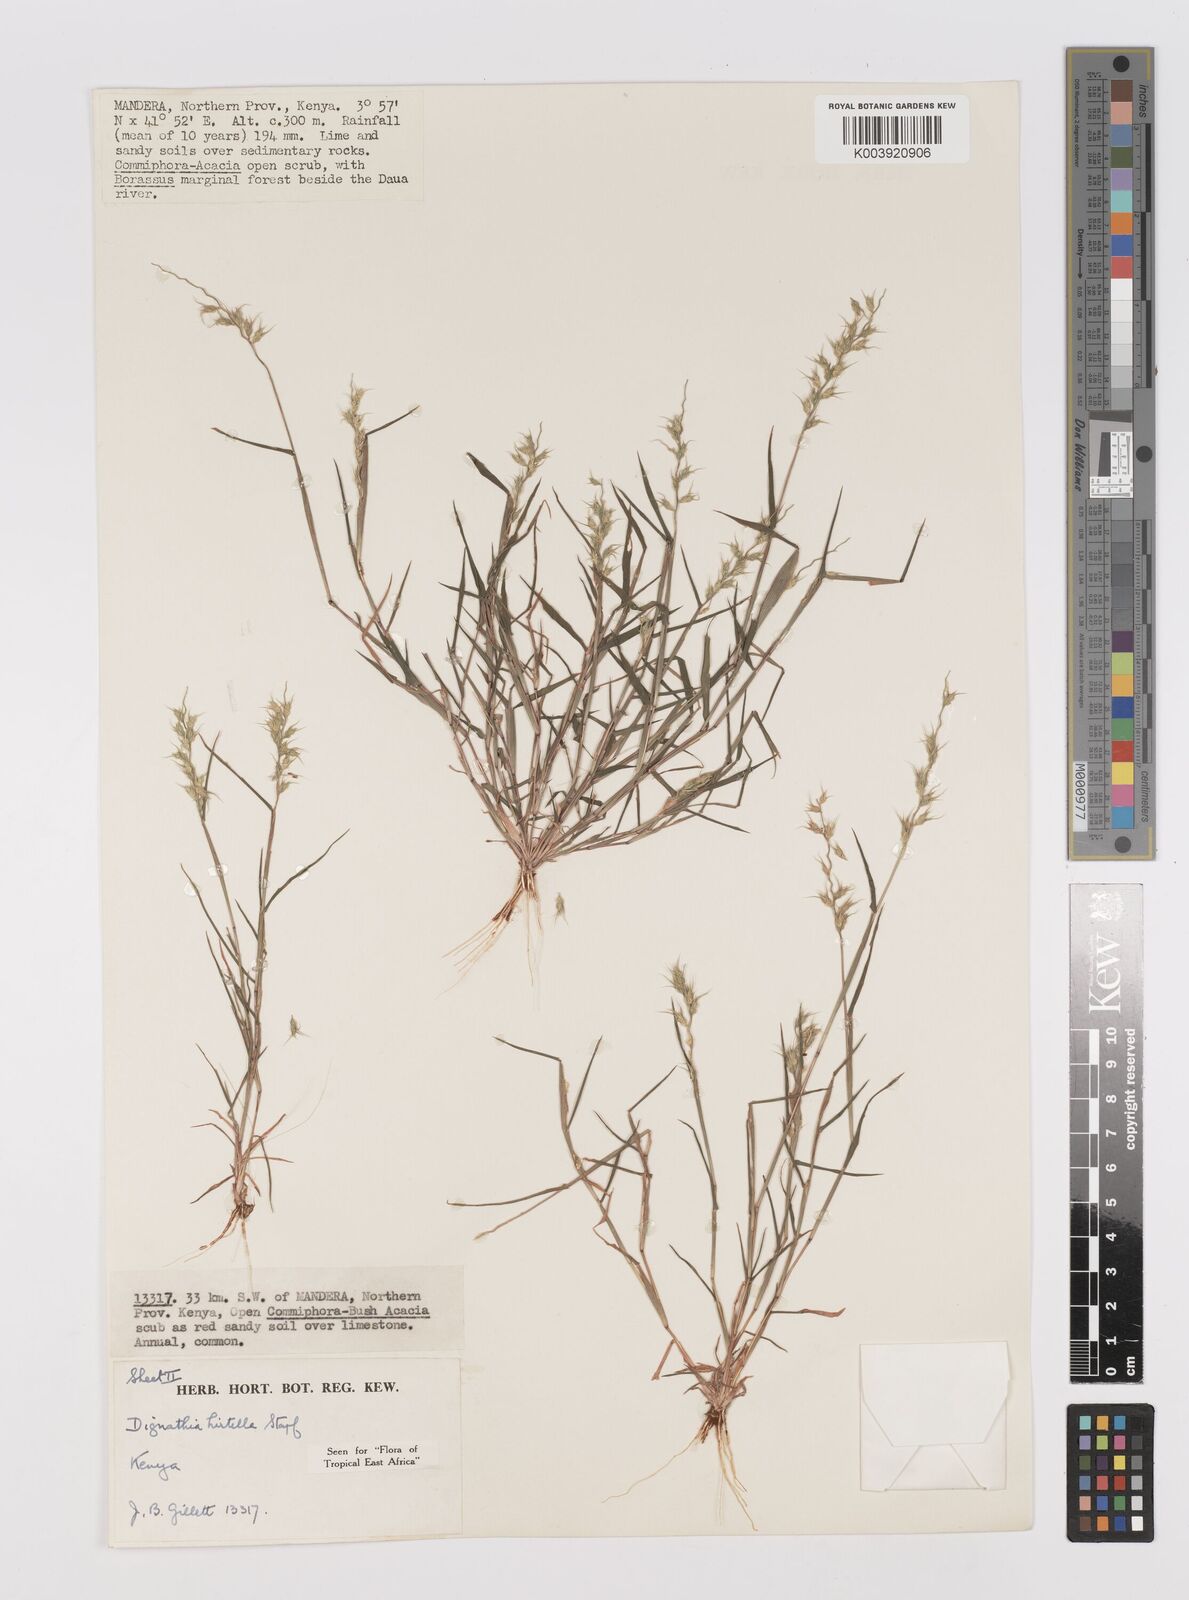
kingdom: Plantae
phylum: Tracheophyta
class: Liliopsida
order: Poales
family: Poaceae
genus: Dignathia
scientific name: Dignathia hirtella
